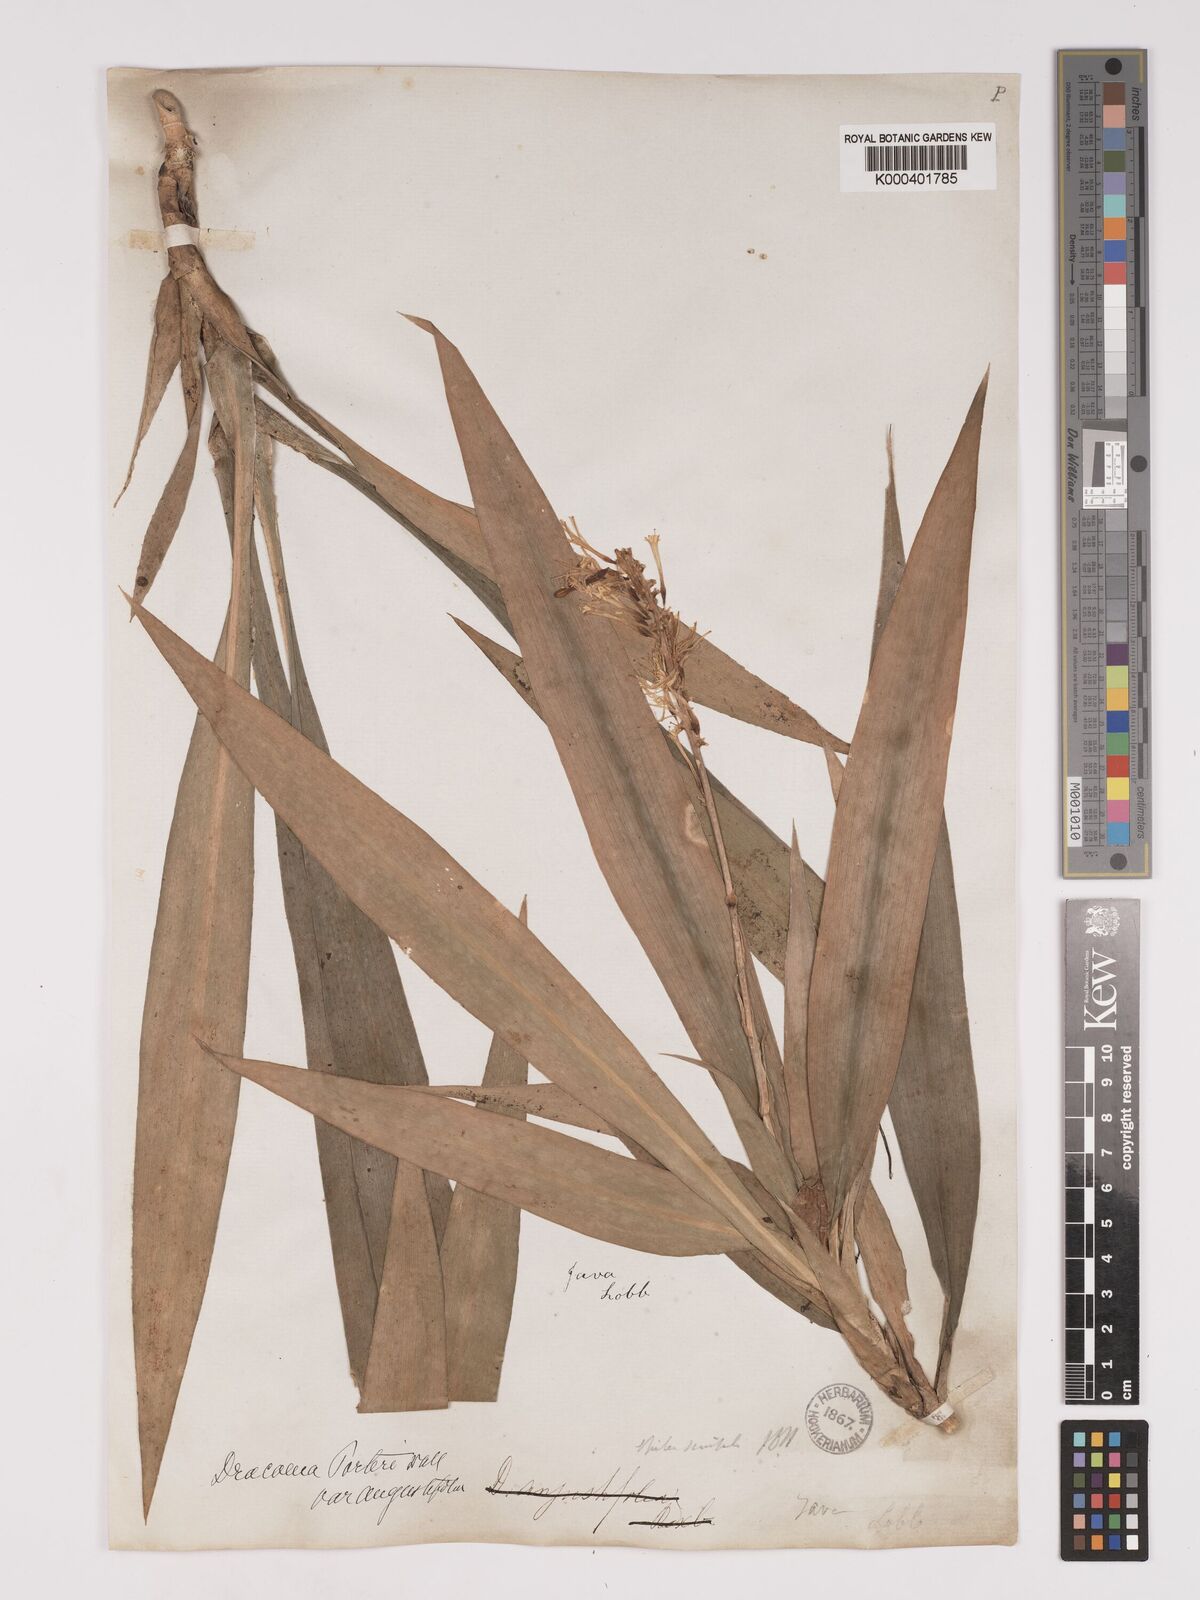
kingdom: Plantae
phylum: Tracheophyta
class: Liliopsida
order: Asparagales
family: Asparagaceae
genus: Dracaena
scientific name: Dracaena porteri
